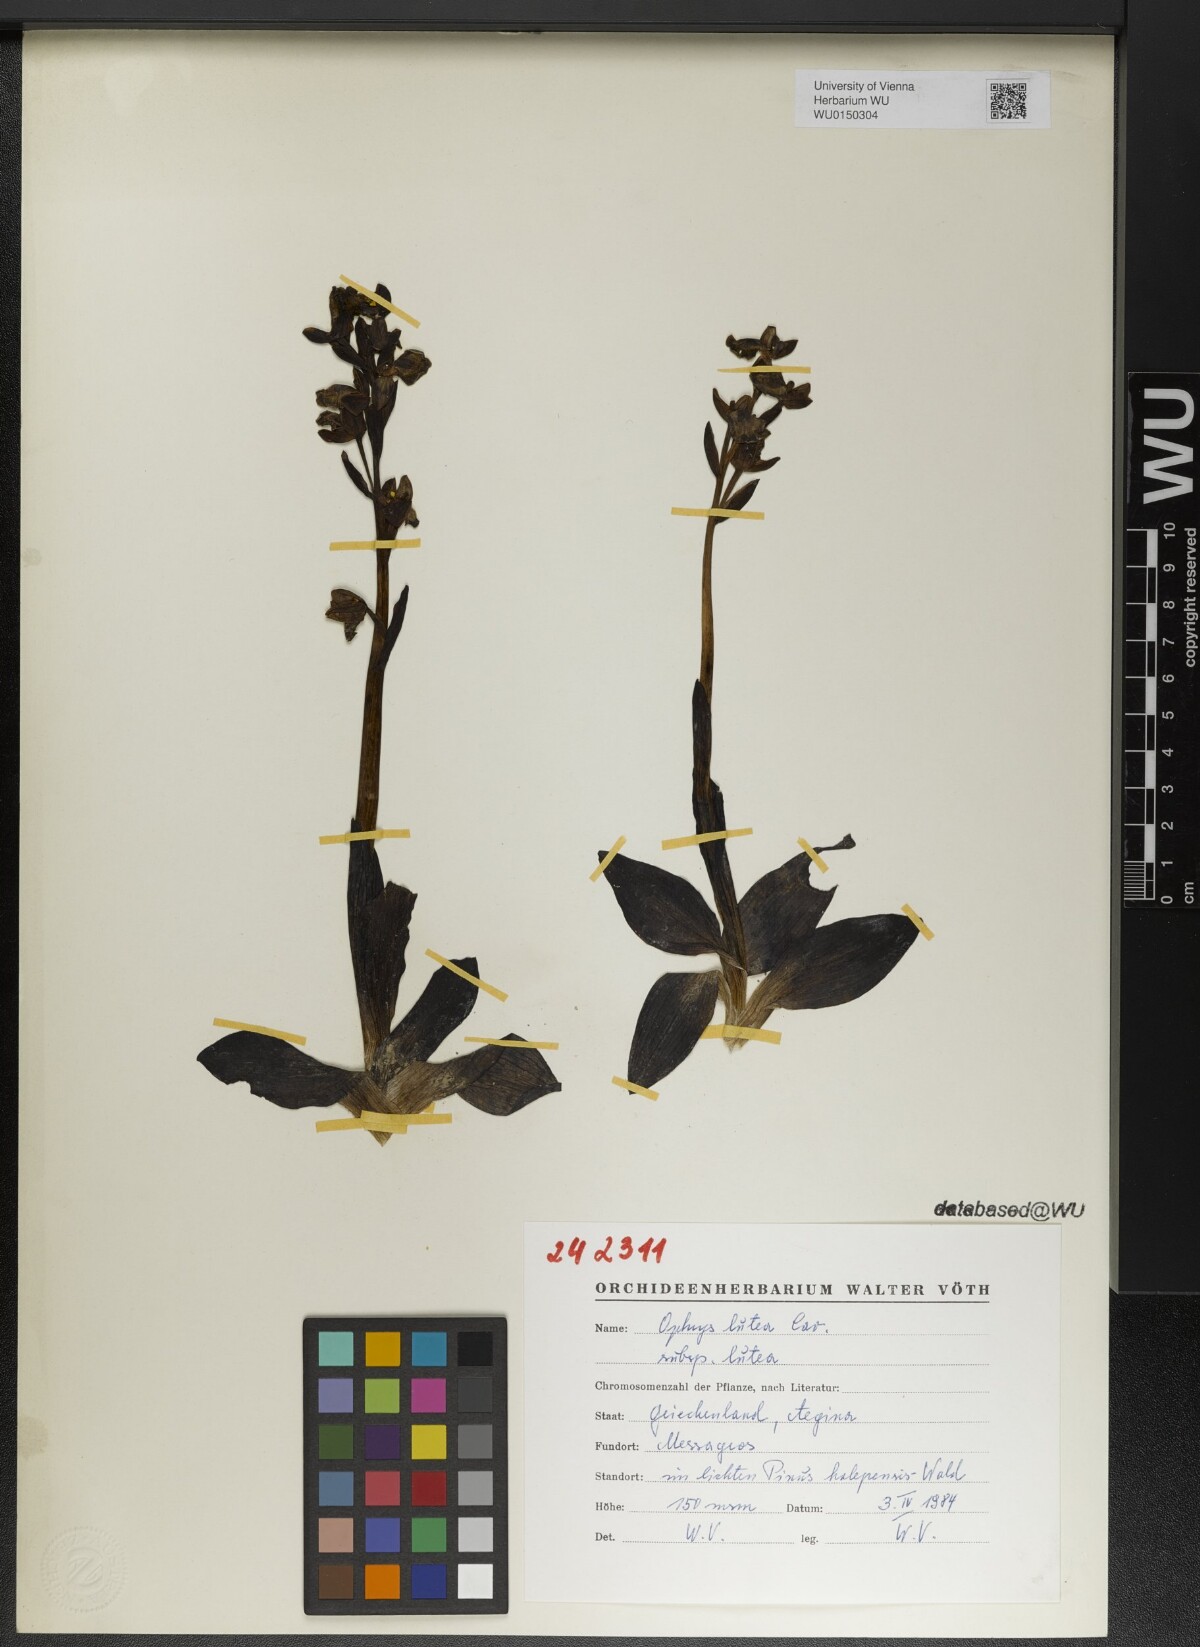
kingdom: Plantae
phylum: Tracheophyta
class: Liliopsida
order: Asparagales
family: Orchidaceae
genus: Ophrys
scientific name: Ophrys lutea
